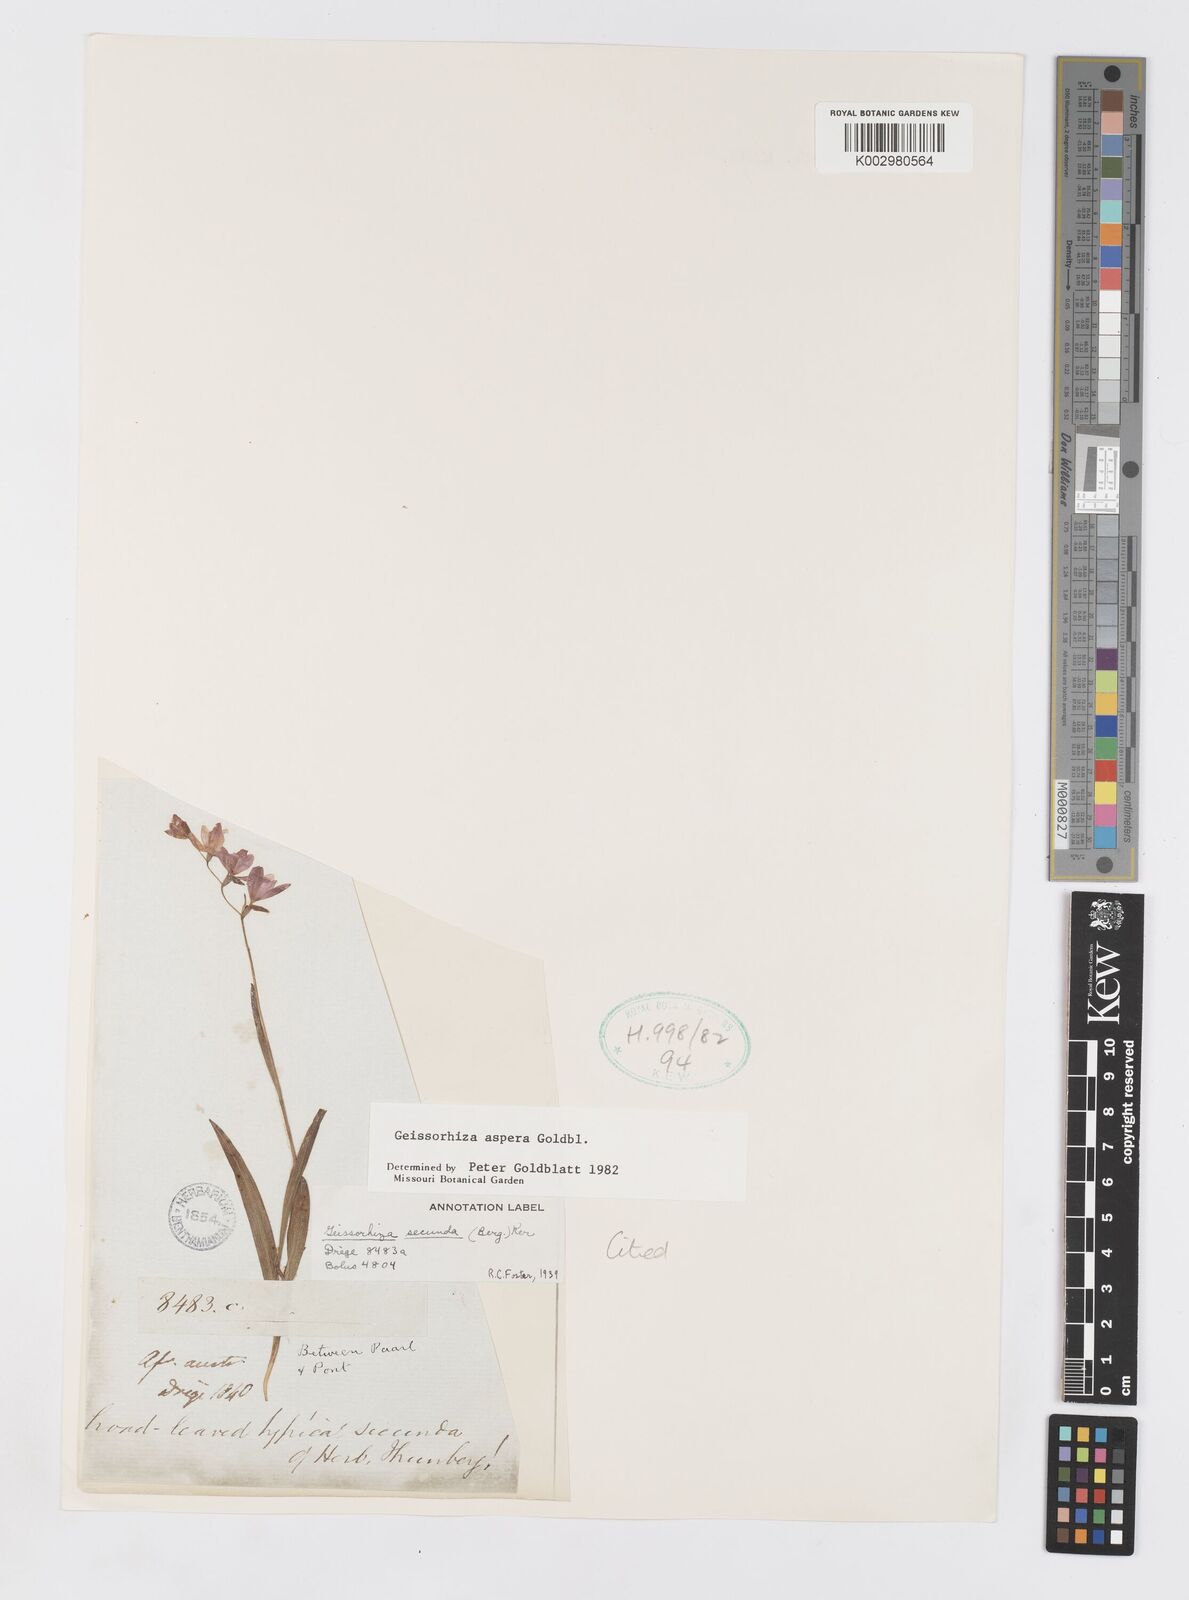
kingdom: Plantae
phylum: Tracheophyta
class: Liliopsida
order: Asparagales
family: Iridaceae
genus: Geissorhiza
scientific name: Geissorhiza aspera
